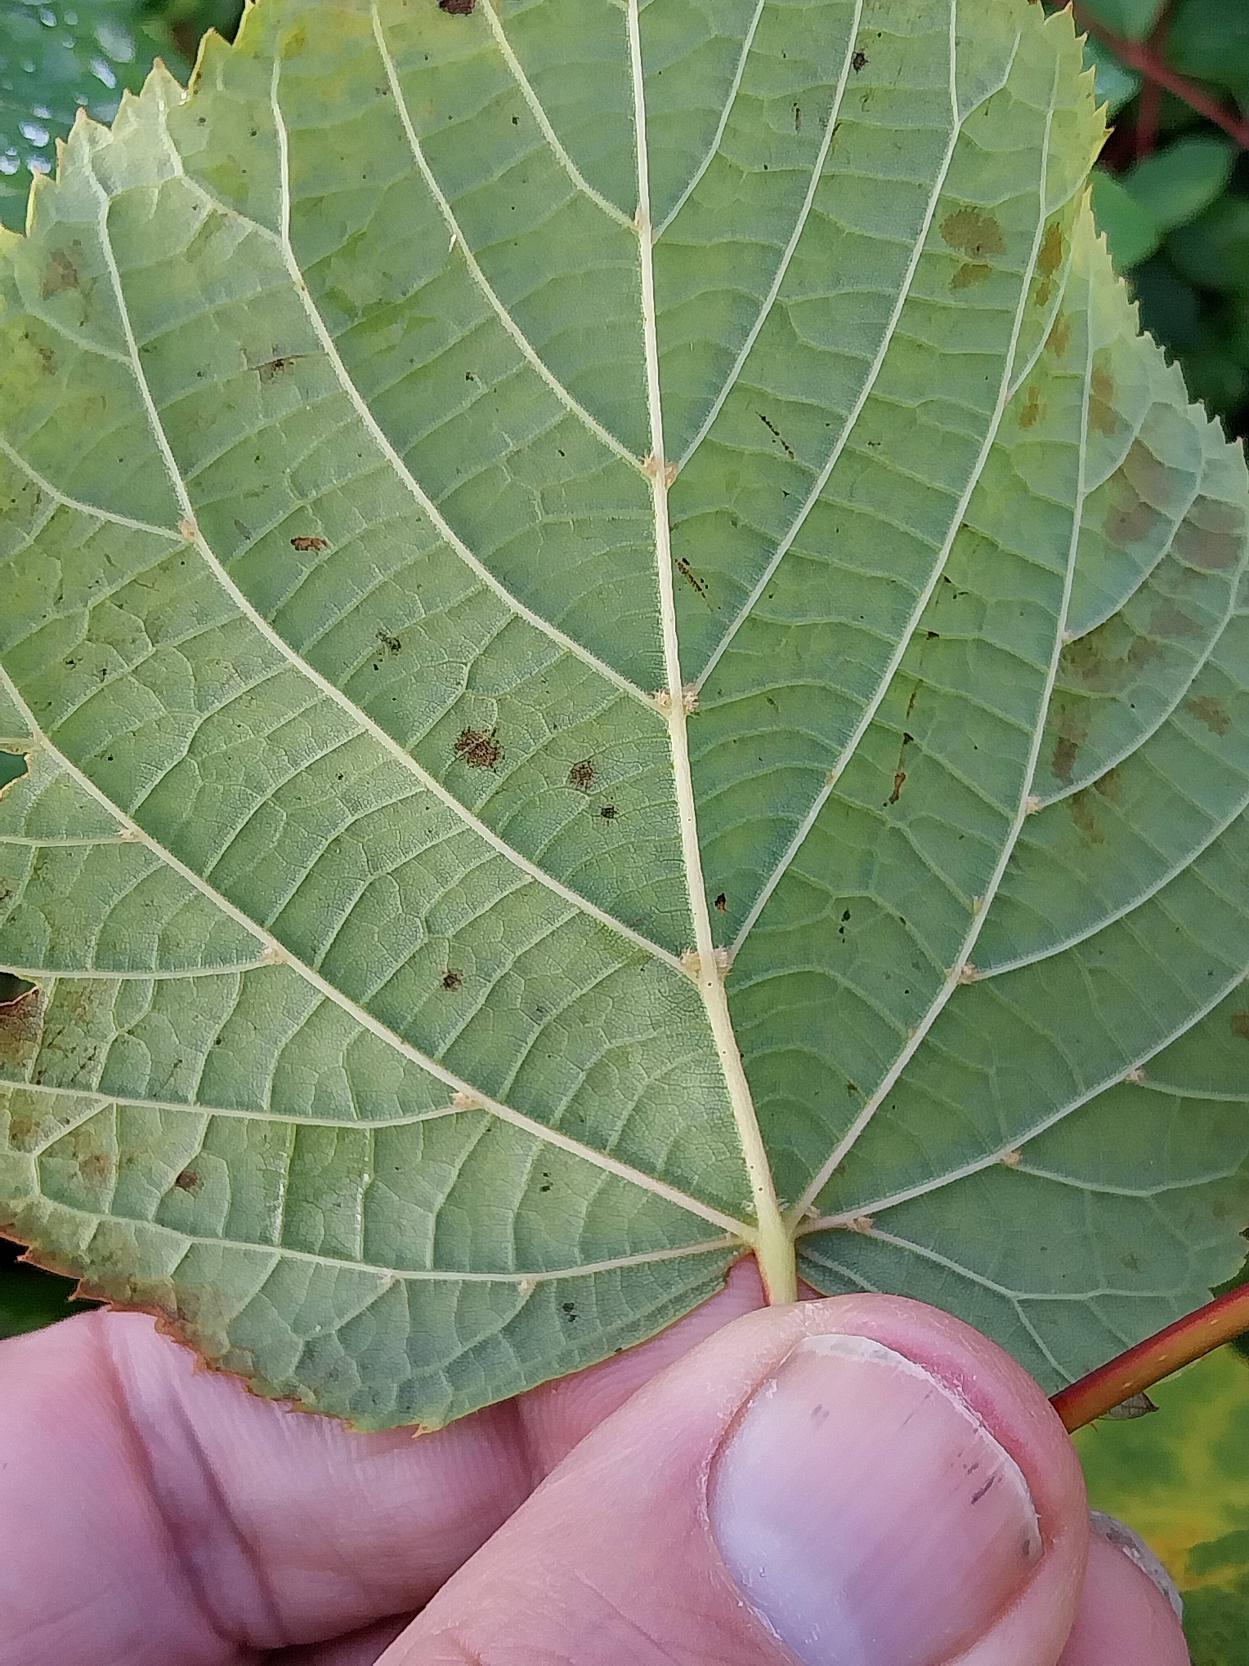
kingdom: Plantae
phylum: Tracheophyta
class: Magnoliopsida
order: Malvales
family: Malvaceae
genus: Tilia
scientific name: Tilia europaea
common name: Park-lind
